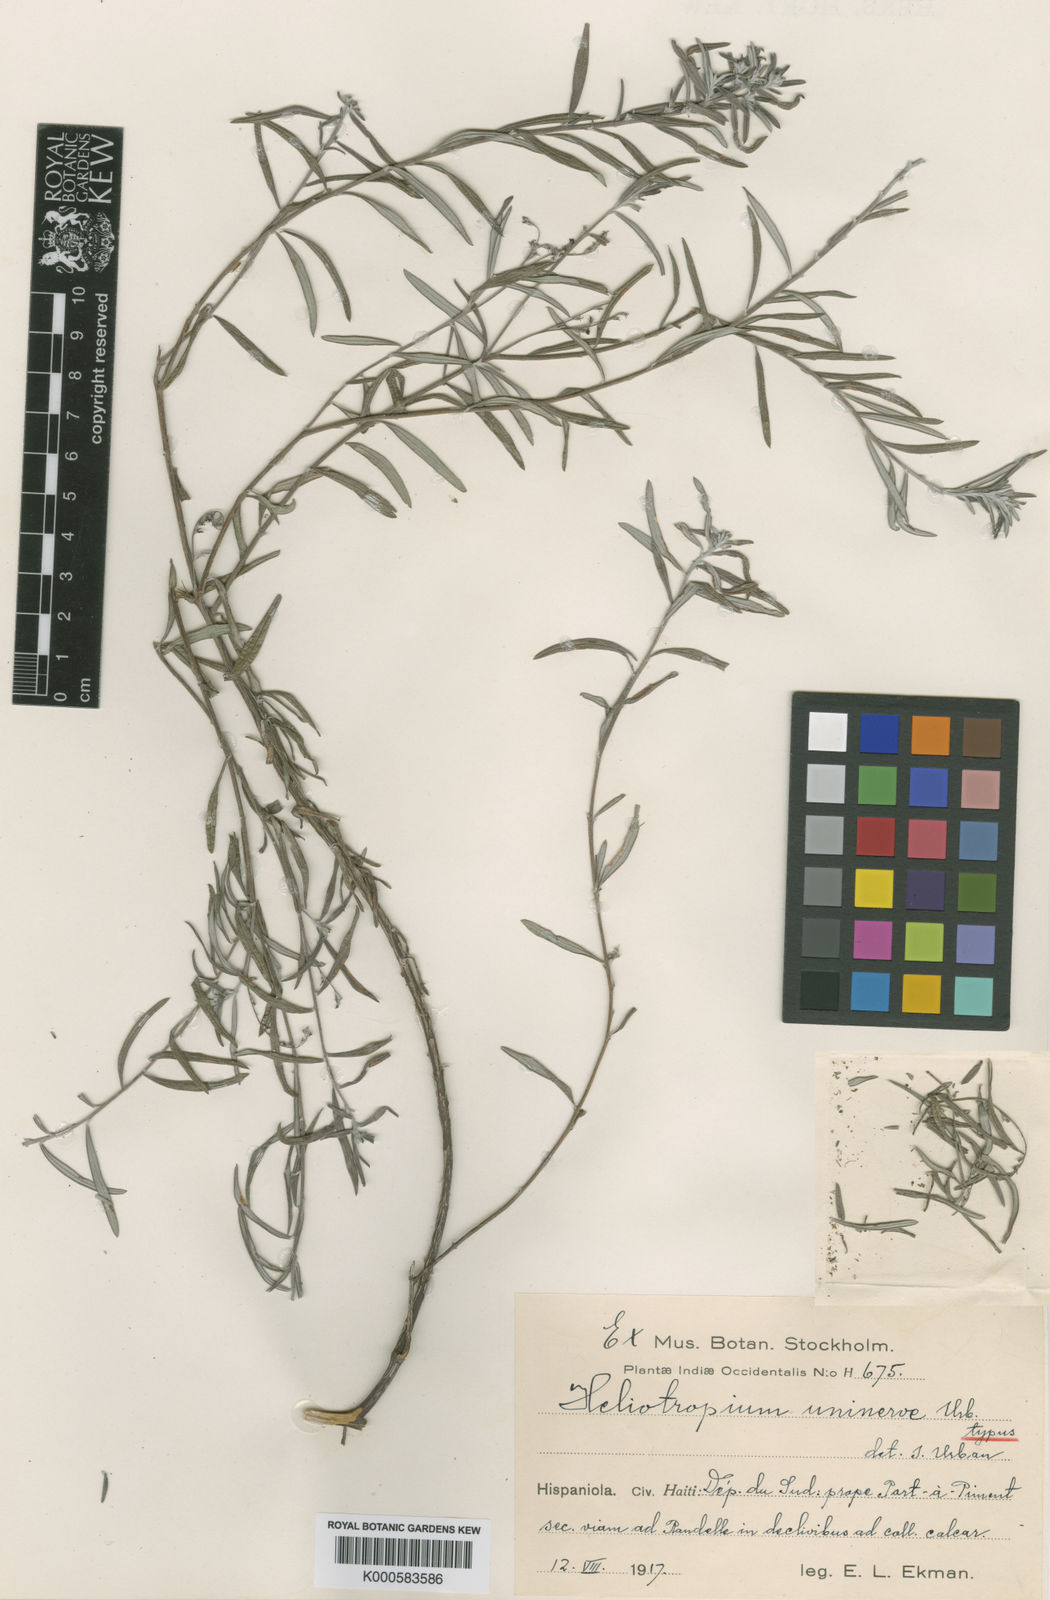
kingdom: Plantae
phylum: Tracheophyta
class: Magnoliopsida
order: Boraginales
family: Heliotropiaceae
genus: Euploca
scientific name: Euploca uninervis
